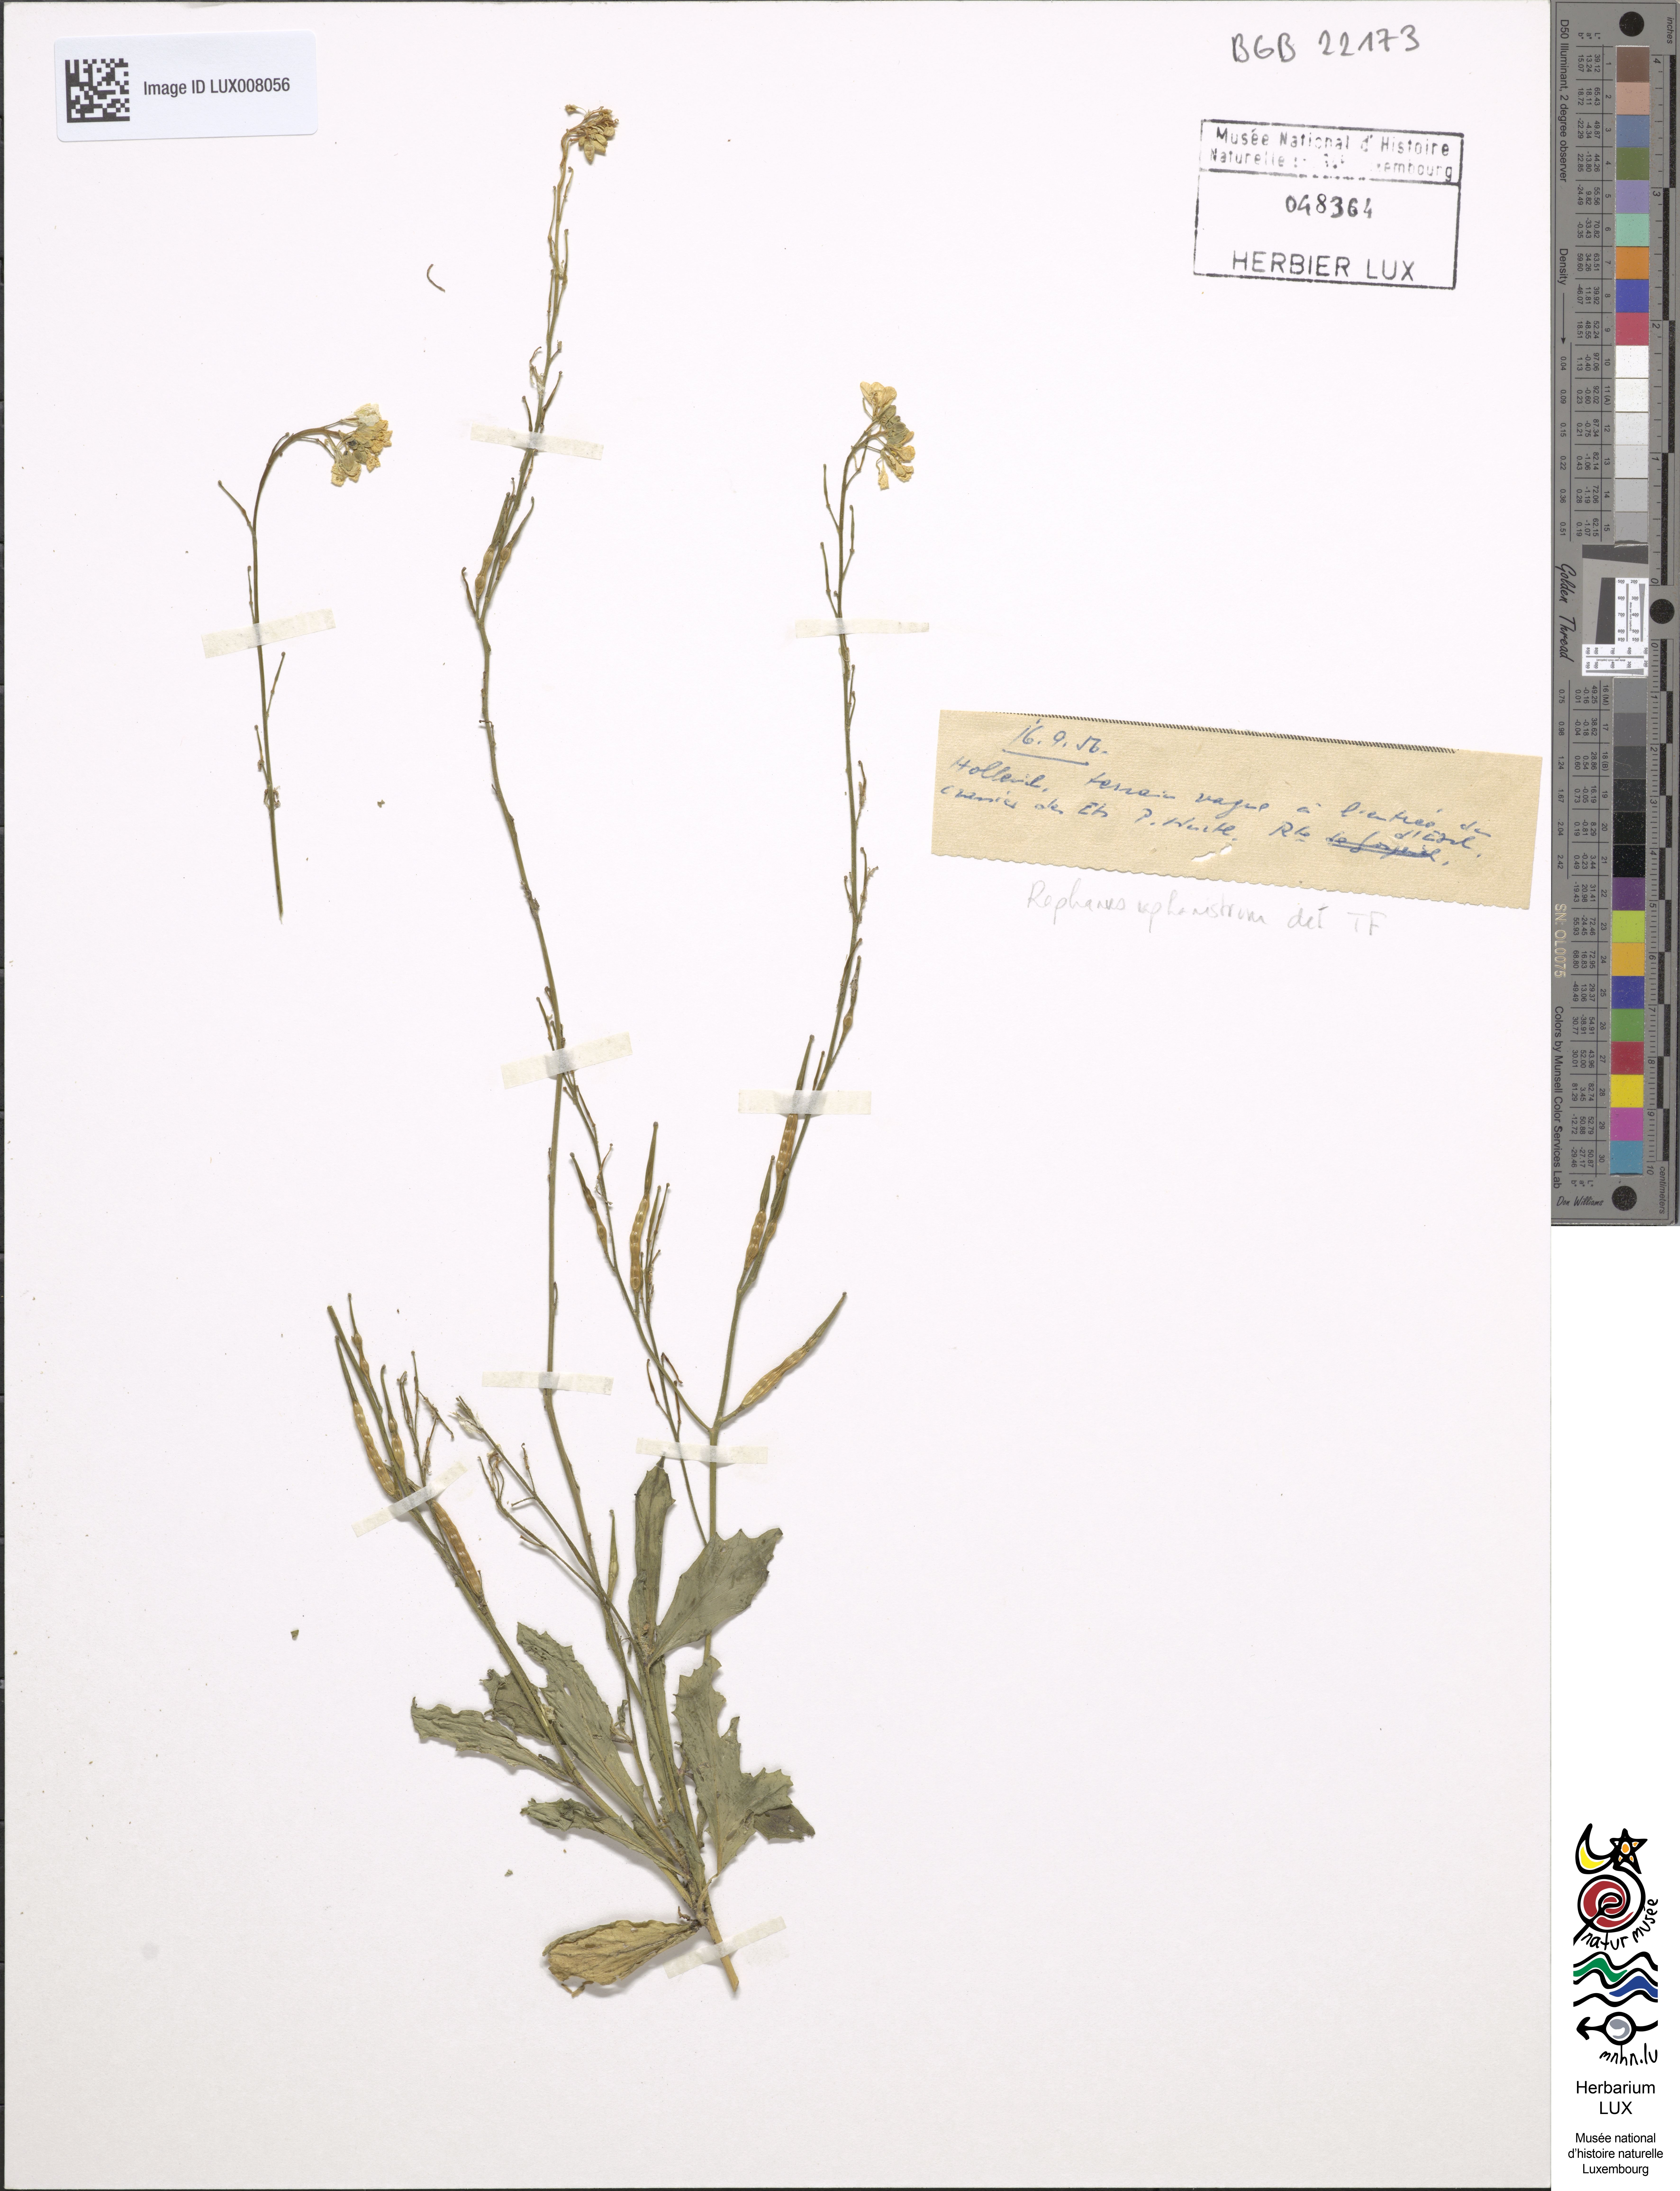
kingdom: Plantae
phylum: Tracheophyta
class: Magnoliopsida
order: Brassicales
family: Brassicaceae
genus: Raphanus
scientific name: Raphanus raphanistrum
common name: Wild radish
